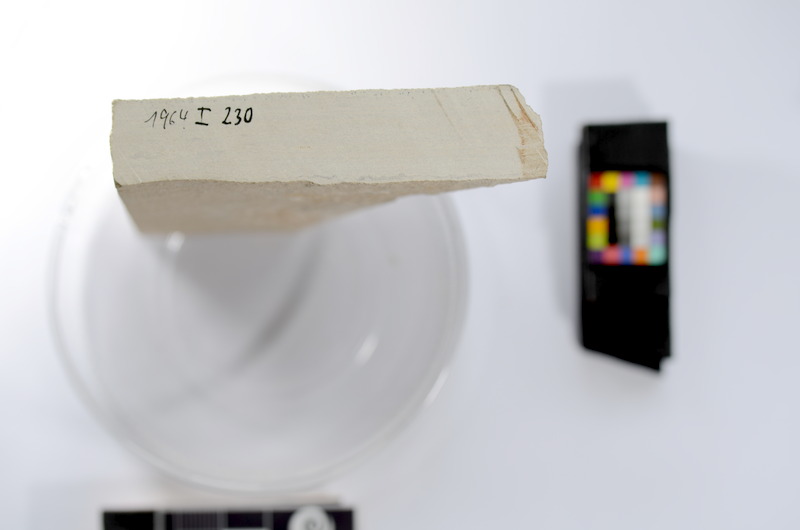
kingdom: Animalia
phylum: Chordata
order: Salmoniformes
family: Orthogonikleithridae
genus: Leptolepides
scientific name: Leptolepides
